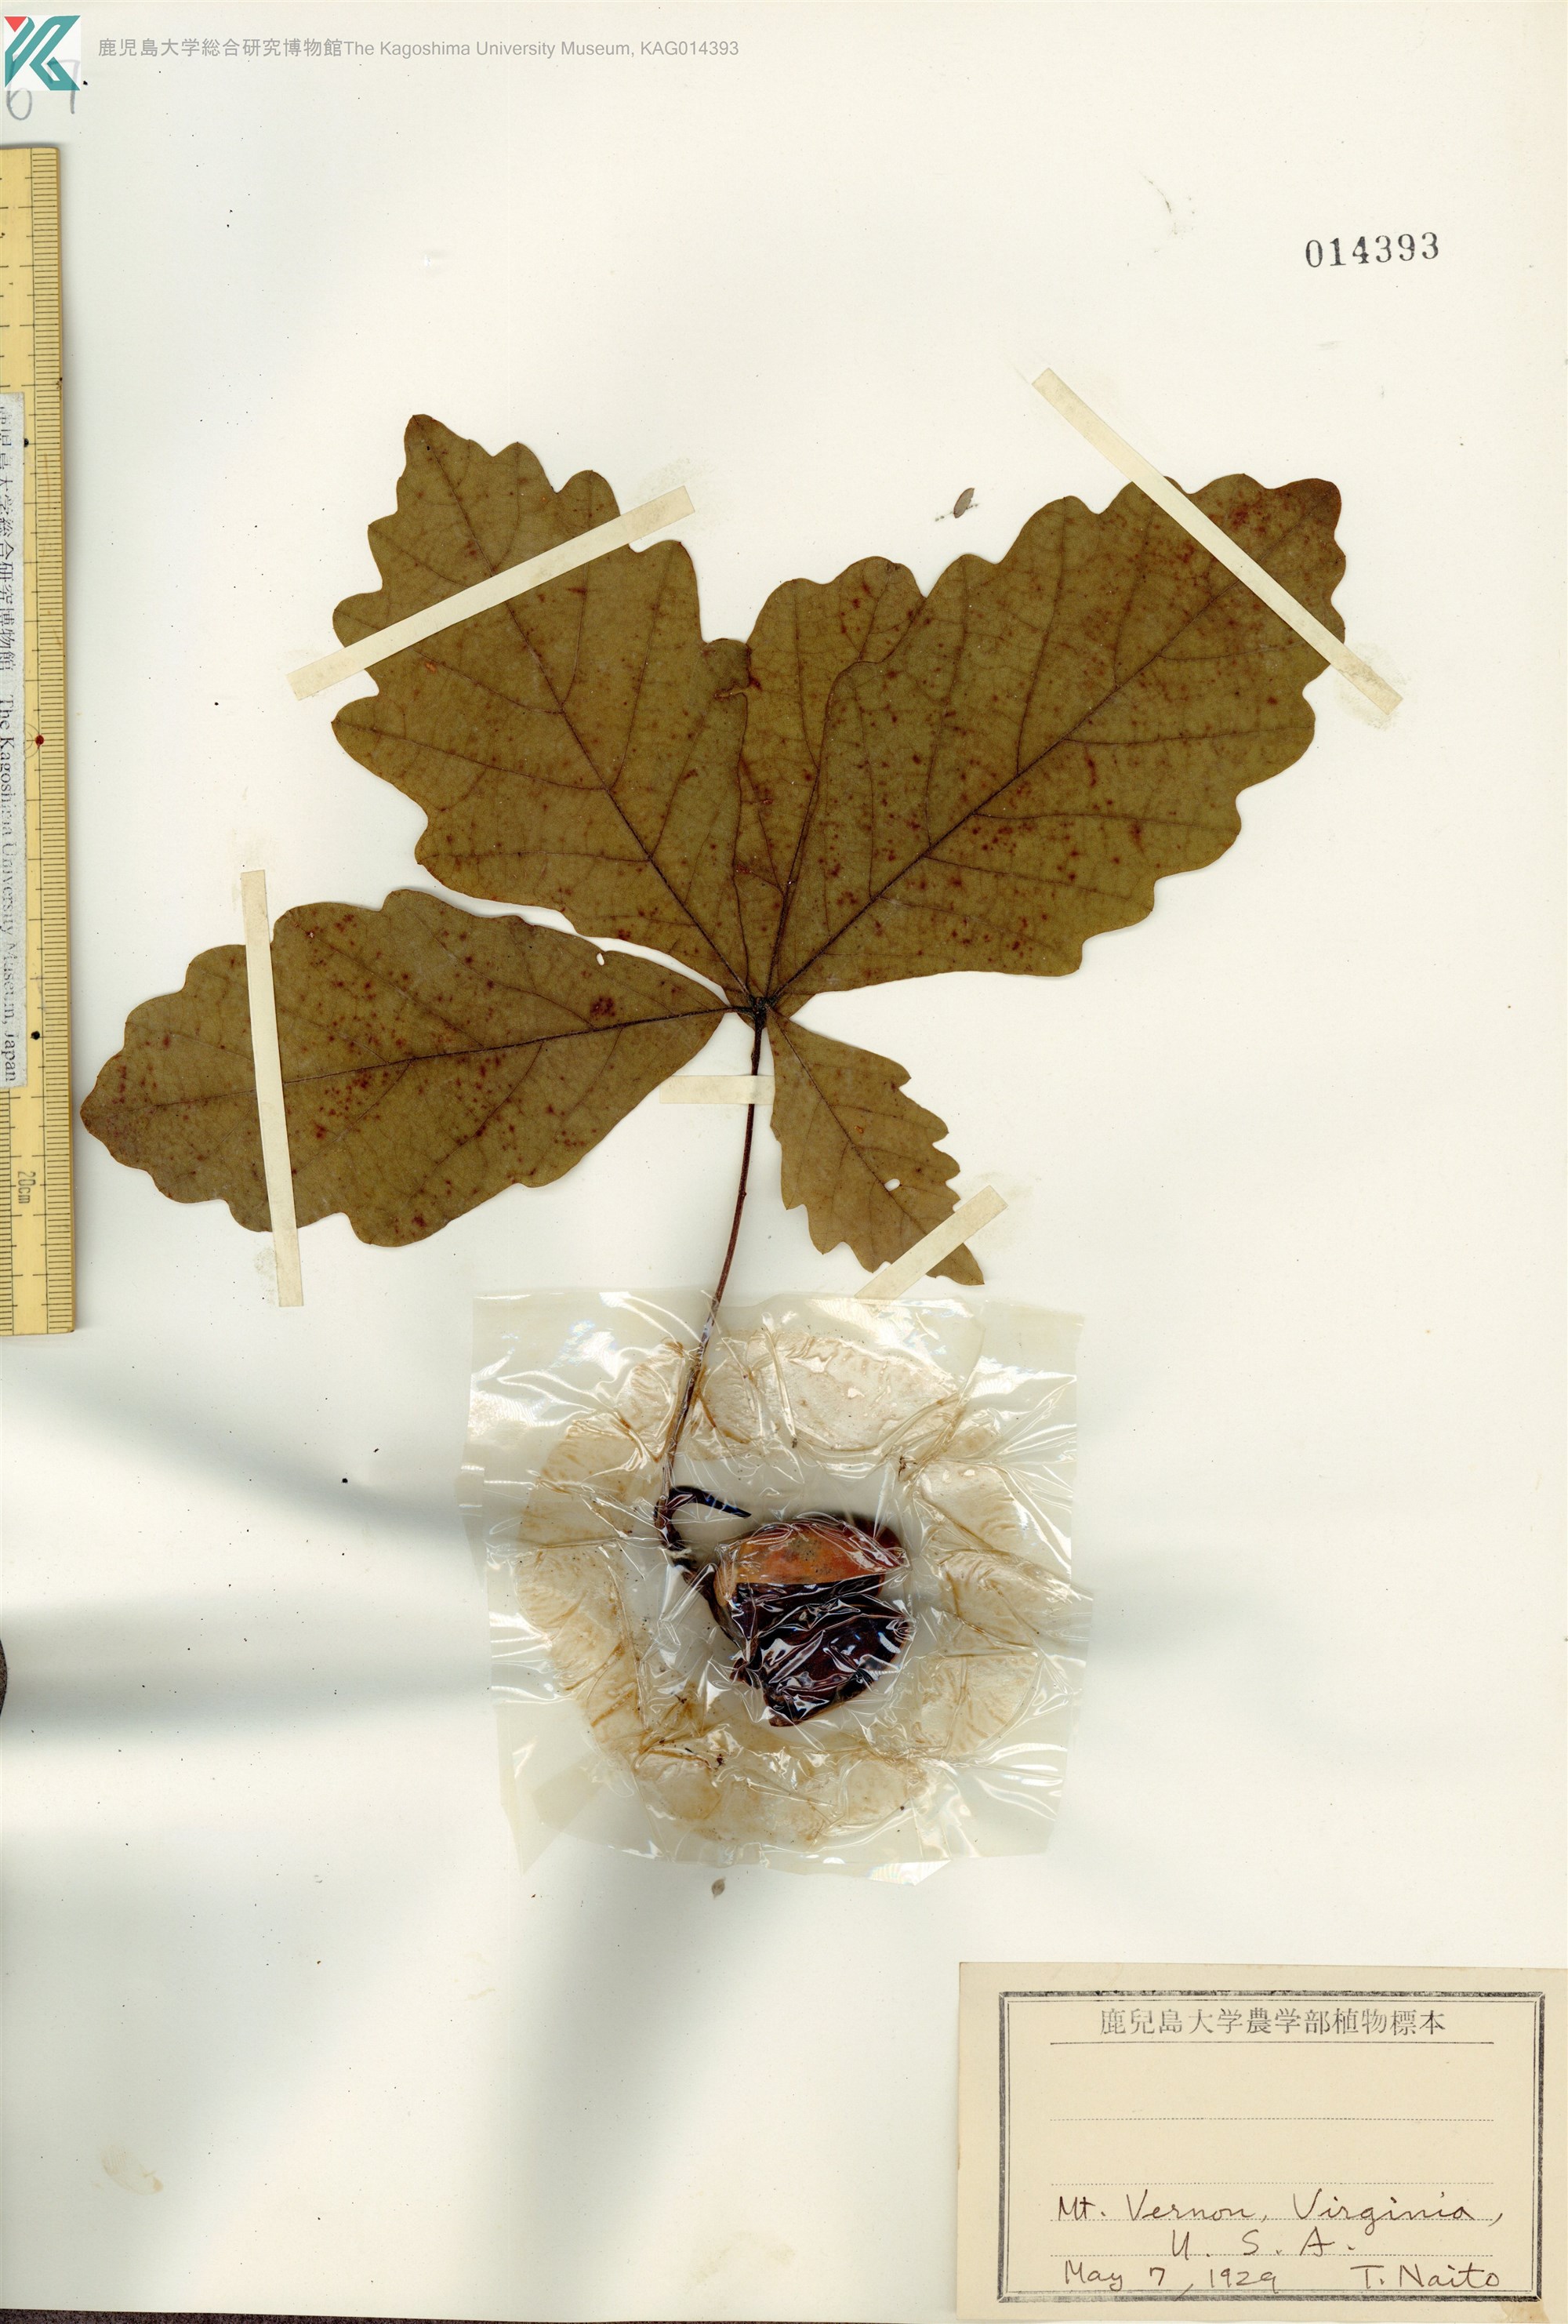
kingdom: Plantae
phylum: Tracheophyta
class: Magnoliopsida
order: Fagales
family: Fagaceae
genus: Quercus
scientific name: Quercus
